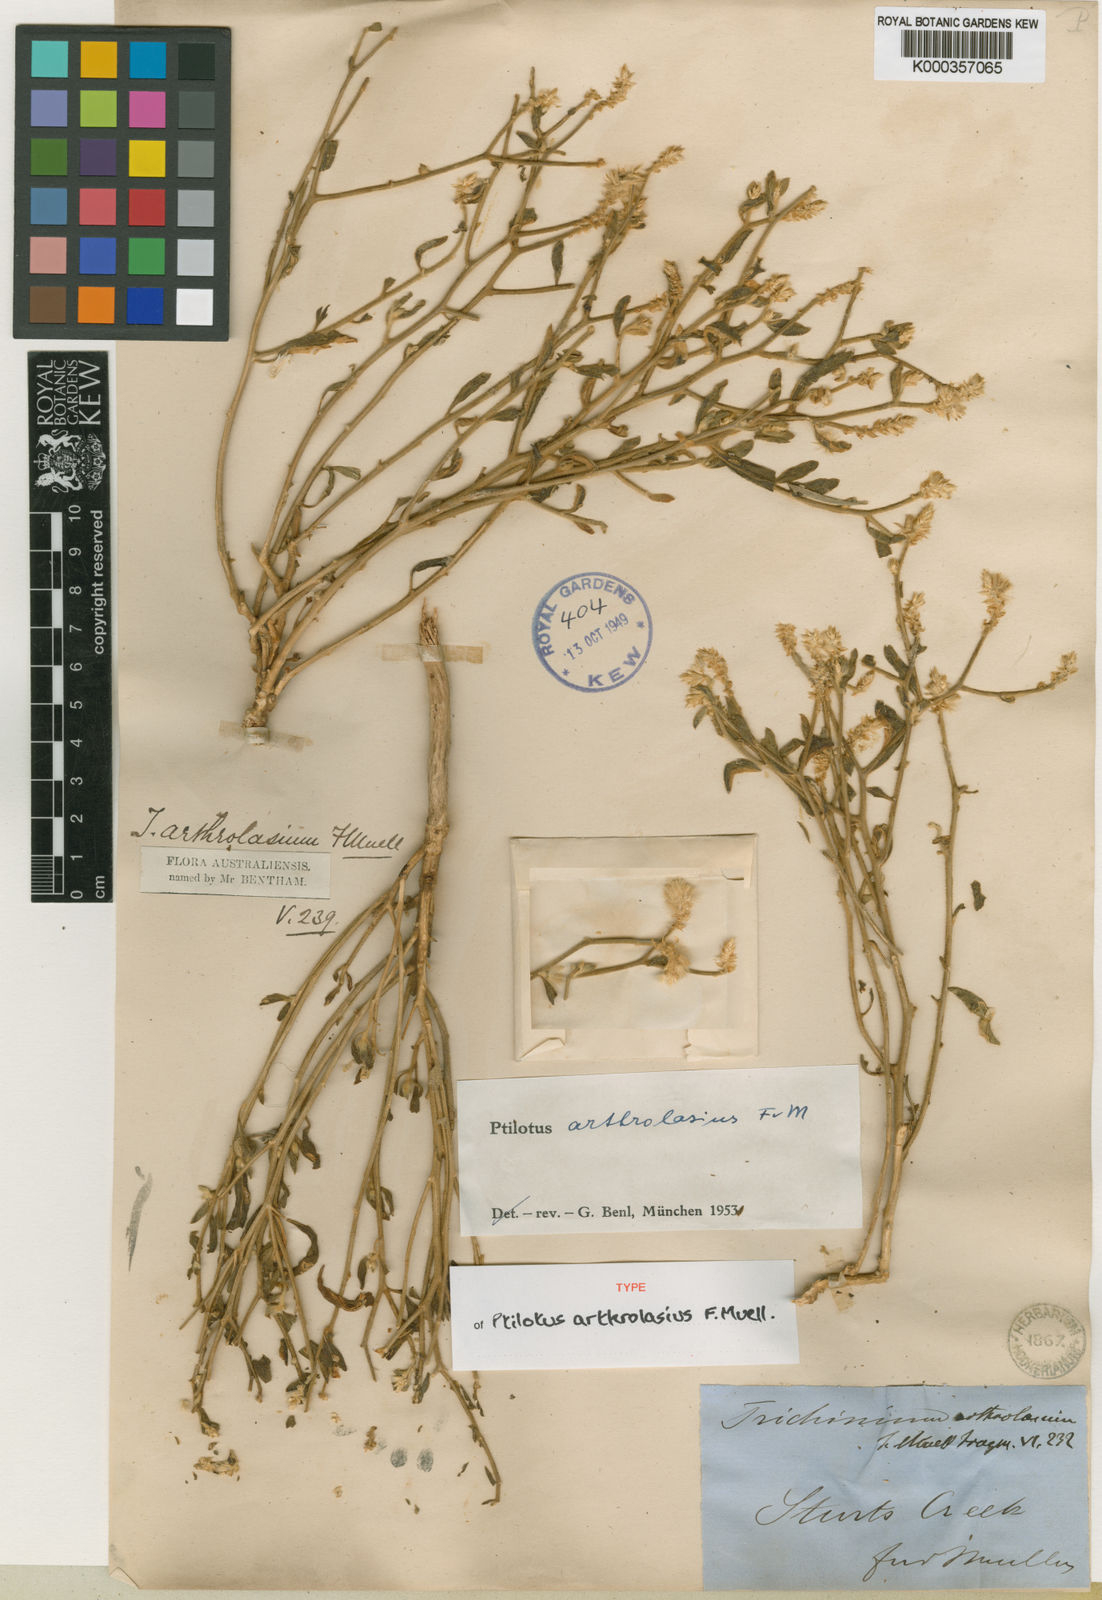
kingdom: Plantae
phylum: Tracheophyta
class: Magnoliopsida
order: Caryophyllales
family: Amaranthaceae
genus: Ptilotus
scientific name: Ptilotus arthrolasius
